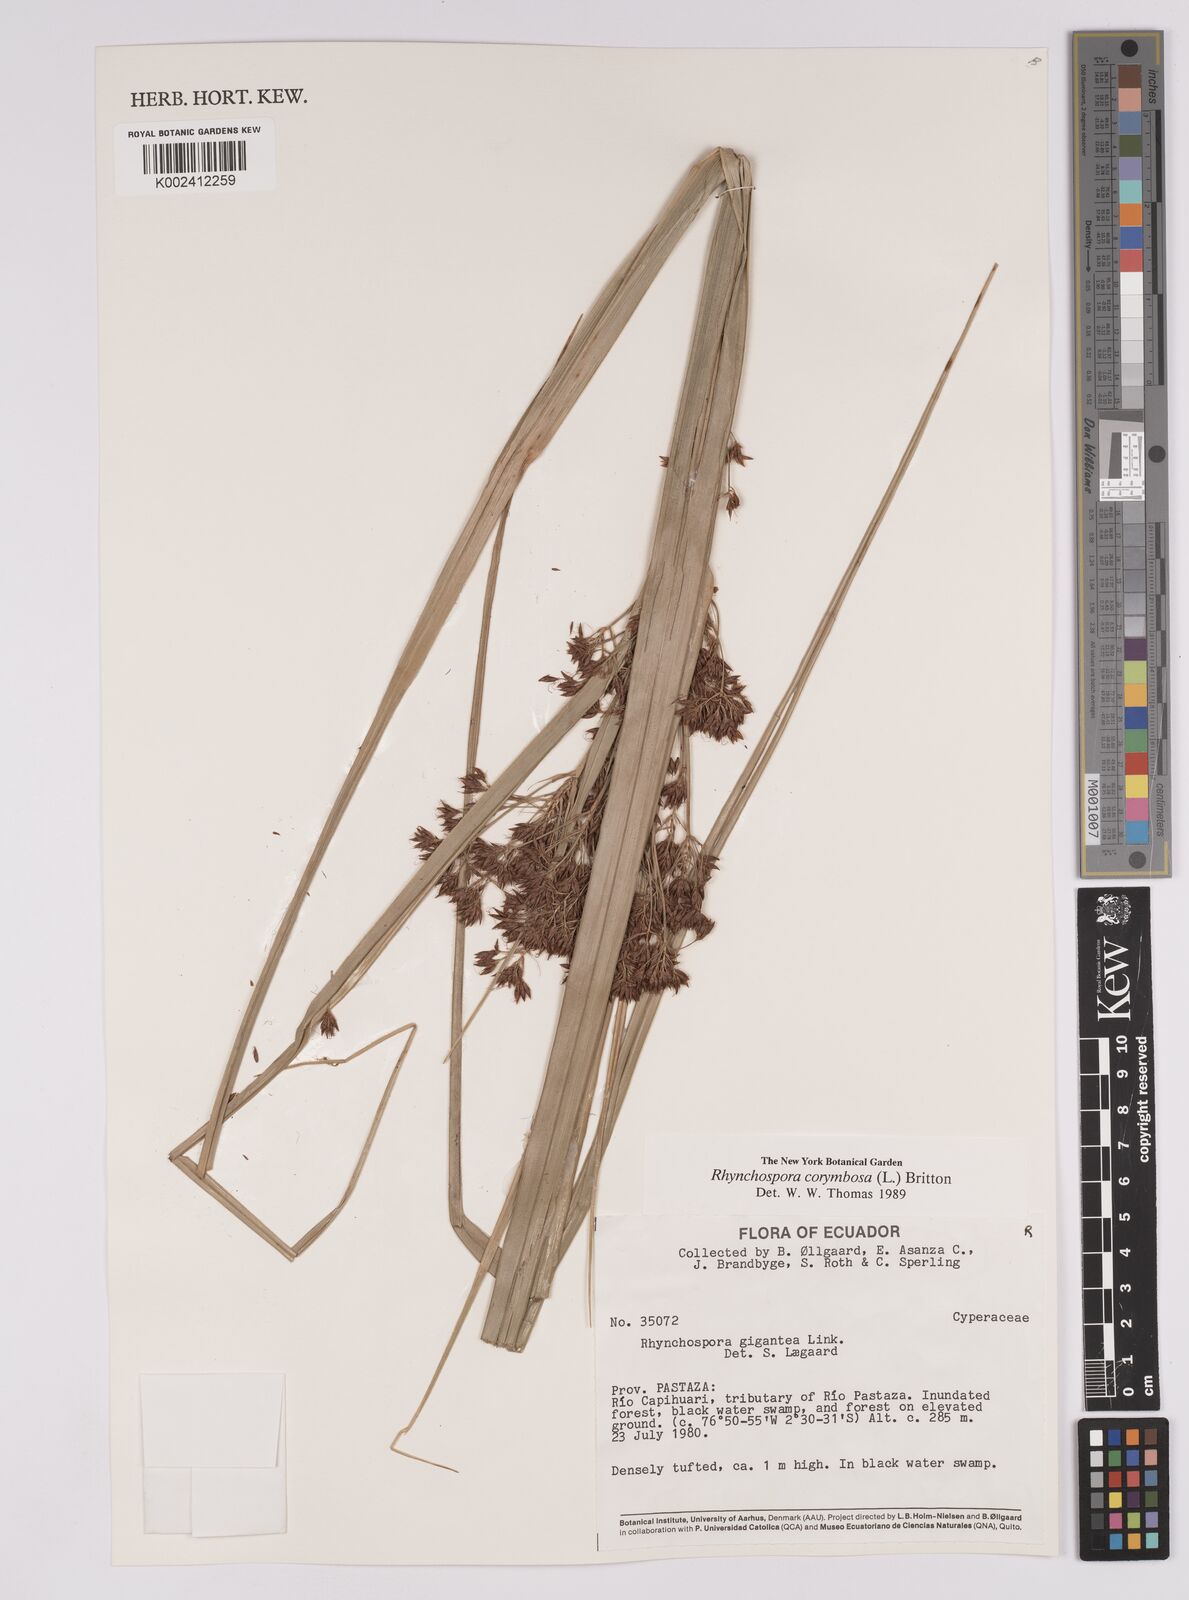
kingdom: Plantae
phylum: Tracheophyta
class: Liliopsida
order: Poales
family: Cyperaceae
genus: Rhynchospora
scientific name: Rhynchospora corymbosa
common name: Golden beak sedge
